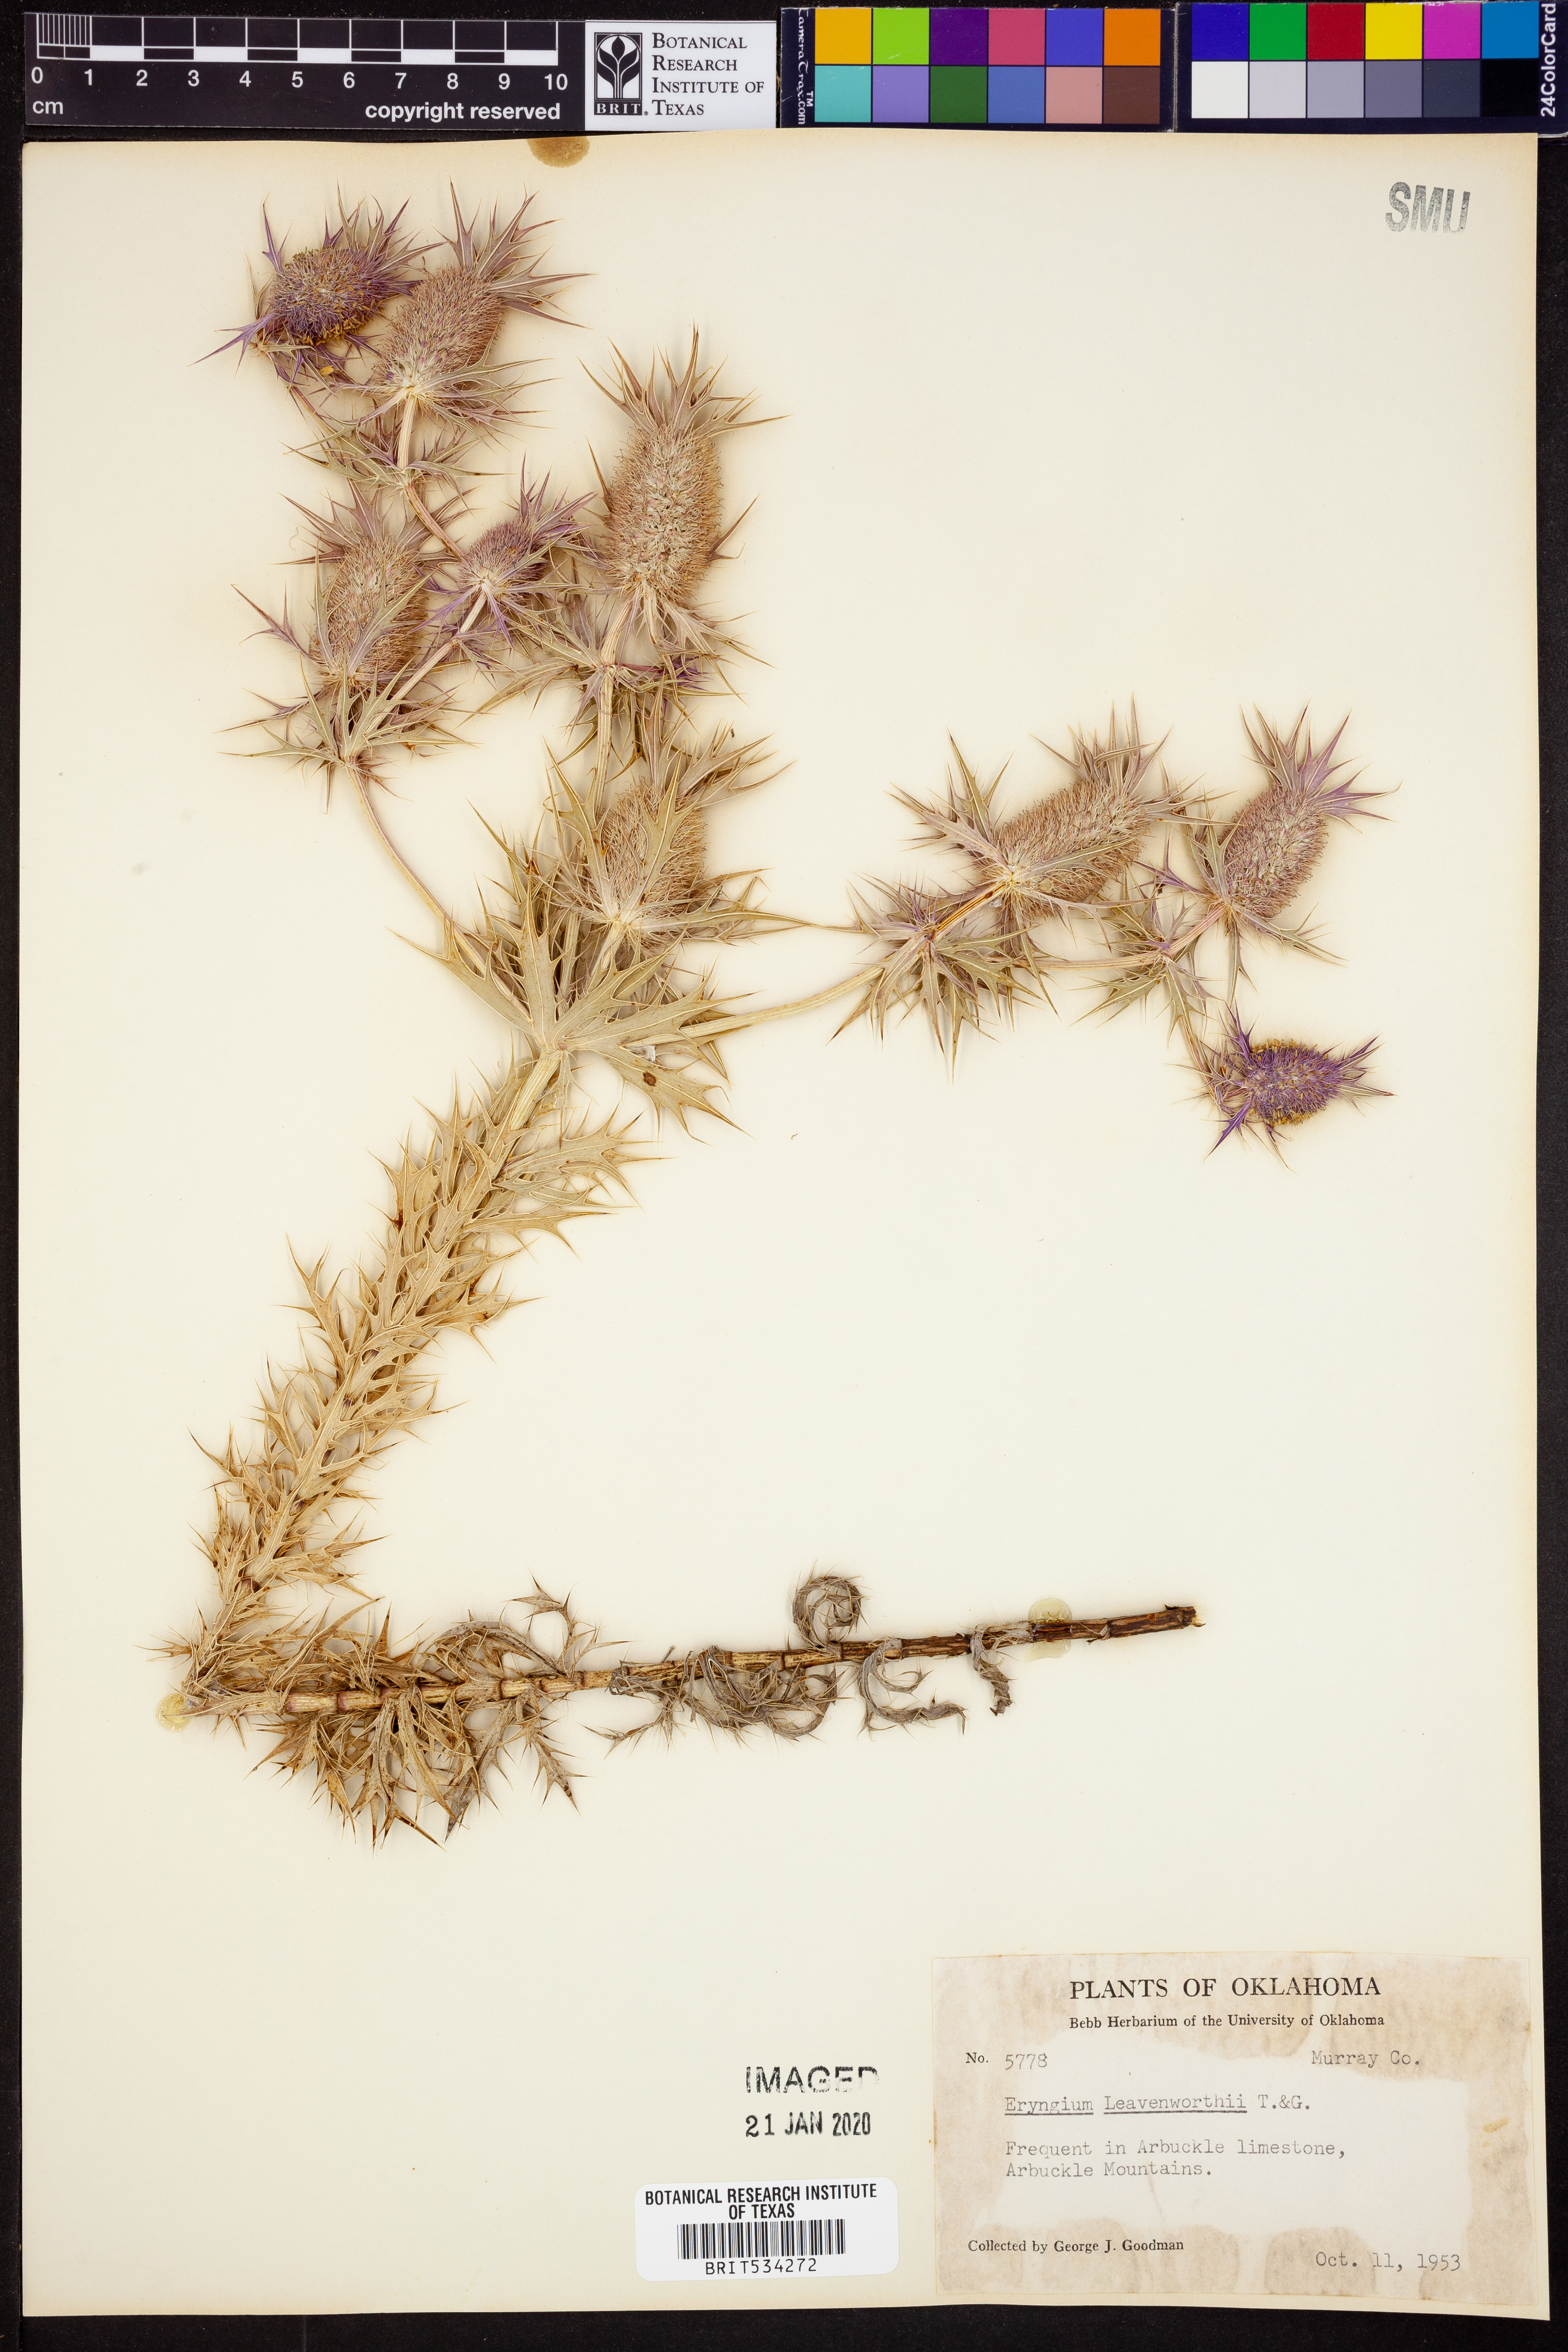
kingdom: Plantae
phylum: Tracheophyta
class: Magnoliopsida
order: Apiales
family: Apiaceae
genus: Eryngium
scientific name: Eryngium leavenworthii
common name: Leavenworth's eryngo
